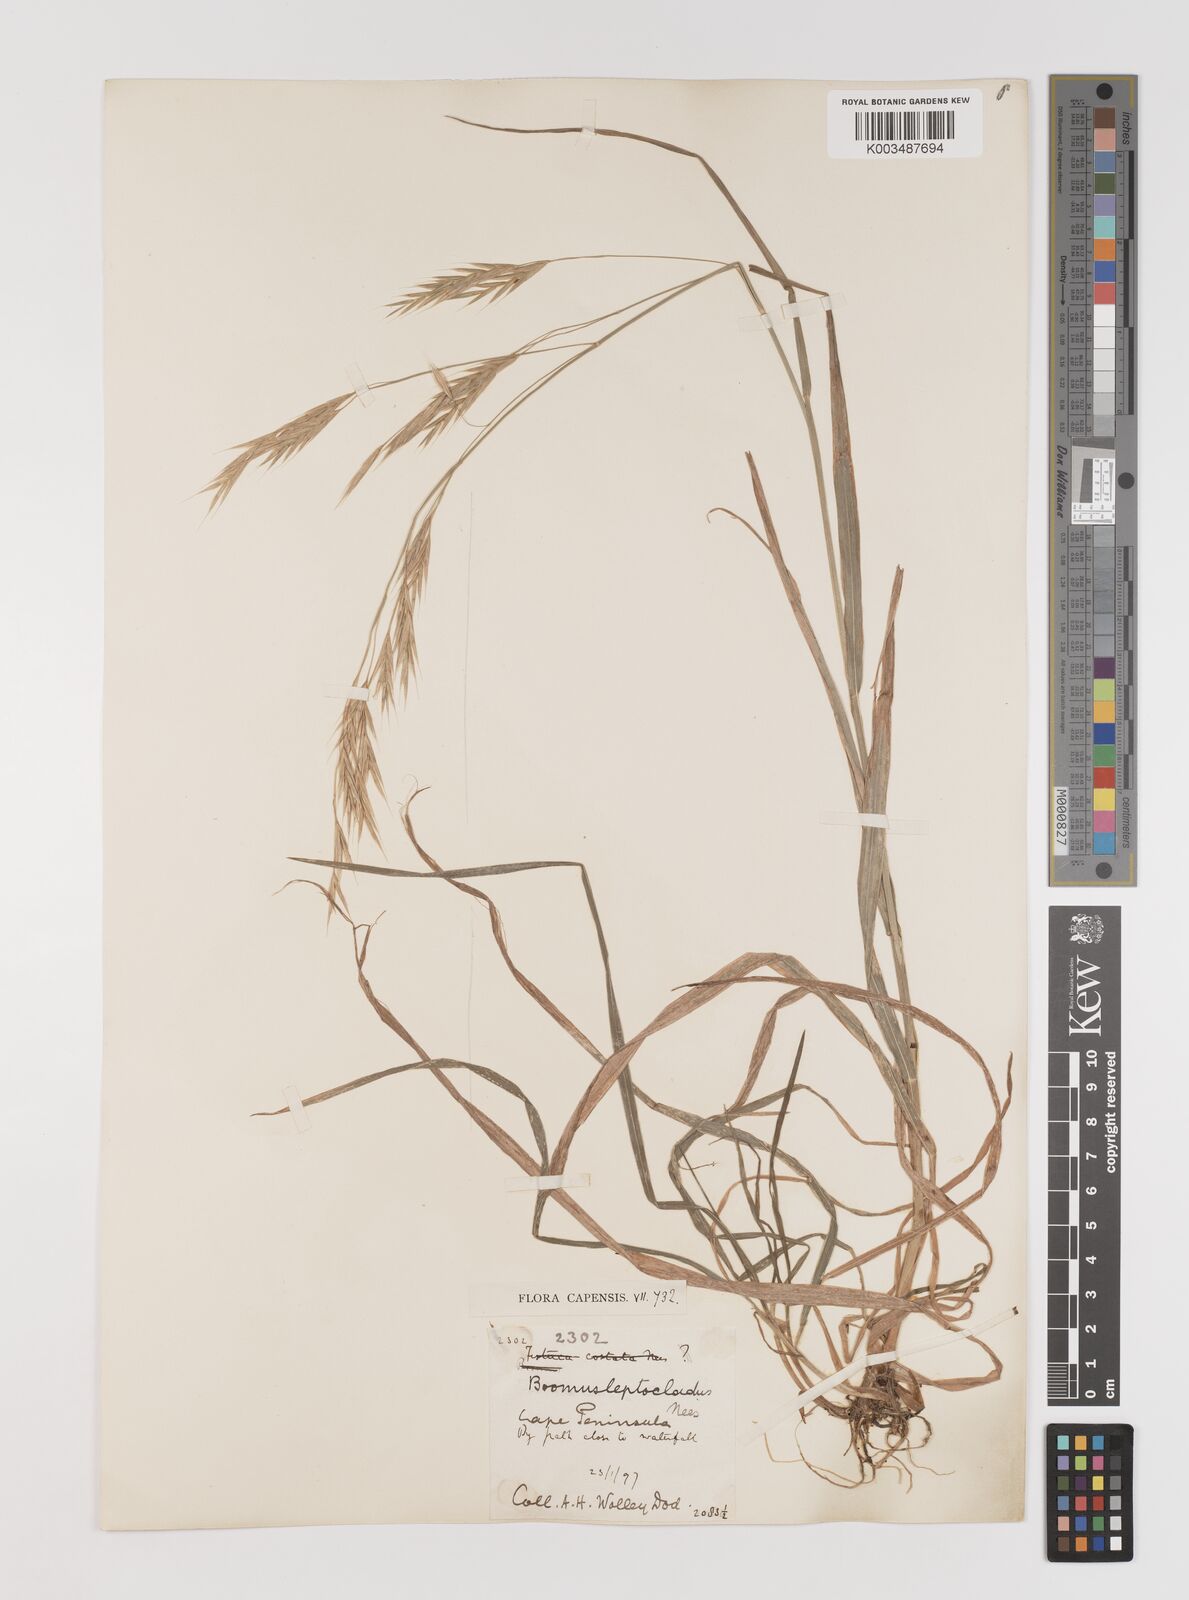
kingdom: Plantae
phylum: Tracheophyta
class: Liliopsida
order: Poales
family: Poaceae
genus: Bromus
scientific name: Bromus leptoclados
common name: Mountain bromegrass
